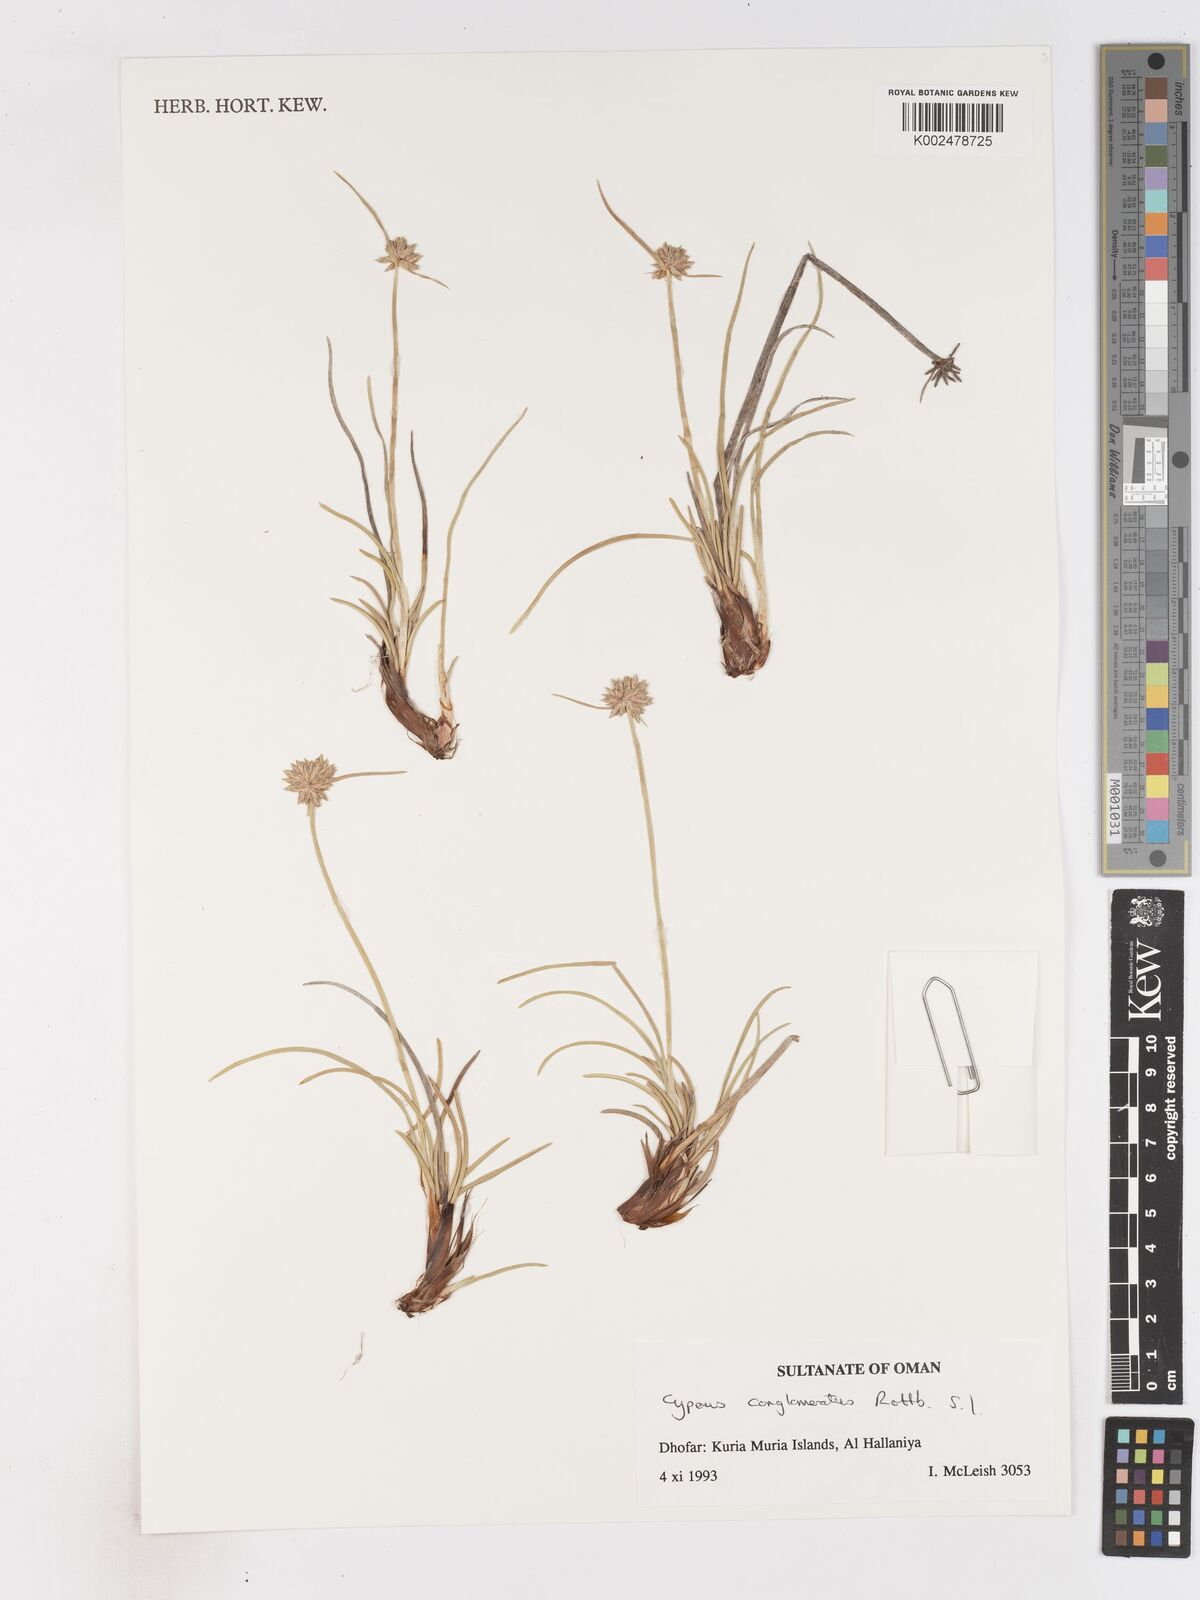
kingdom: Plantae
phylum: Tracheophyta
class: Liliopsida
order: Poales
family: Cyperaceae
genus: Cyperus
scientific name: Cyperus conglomeratus
